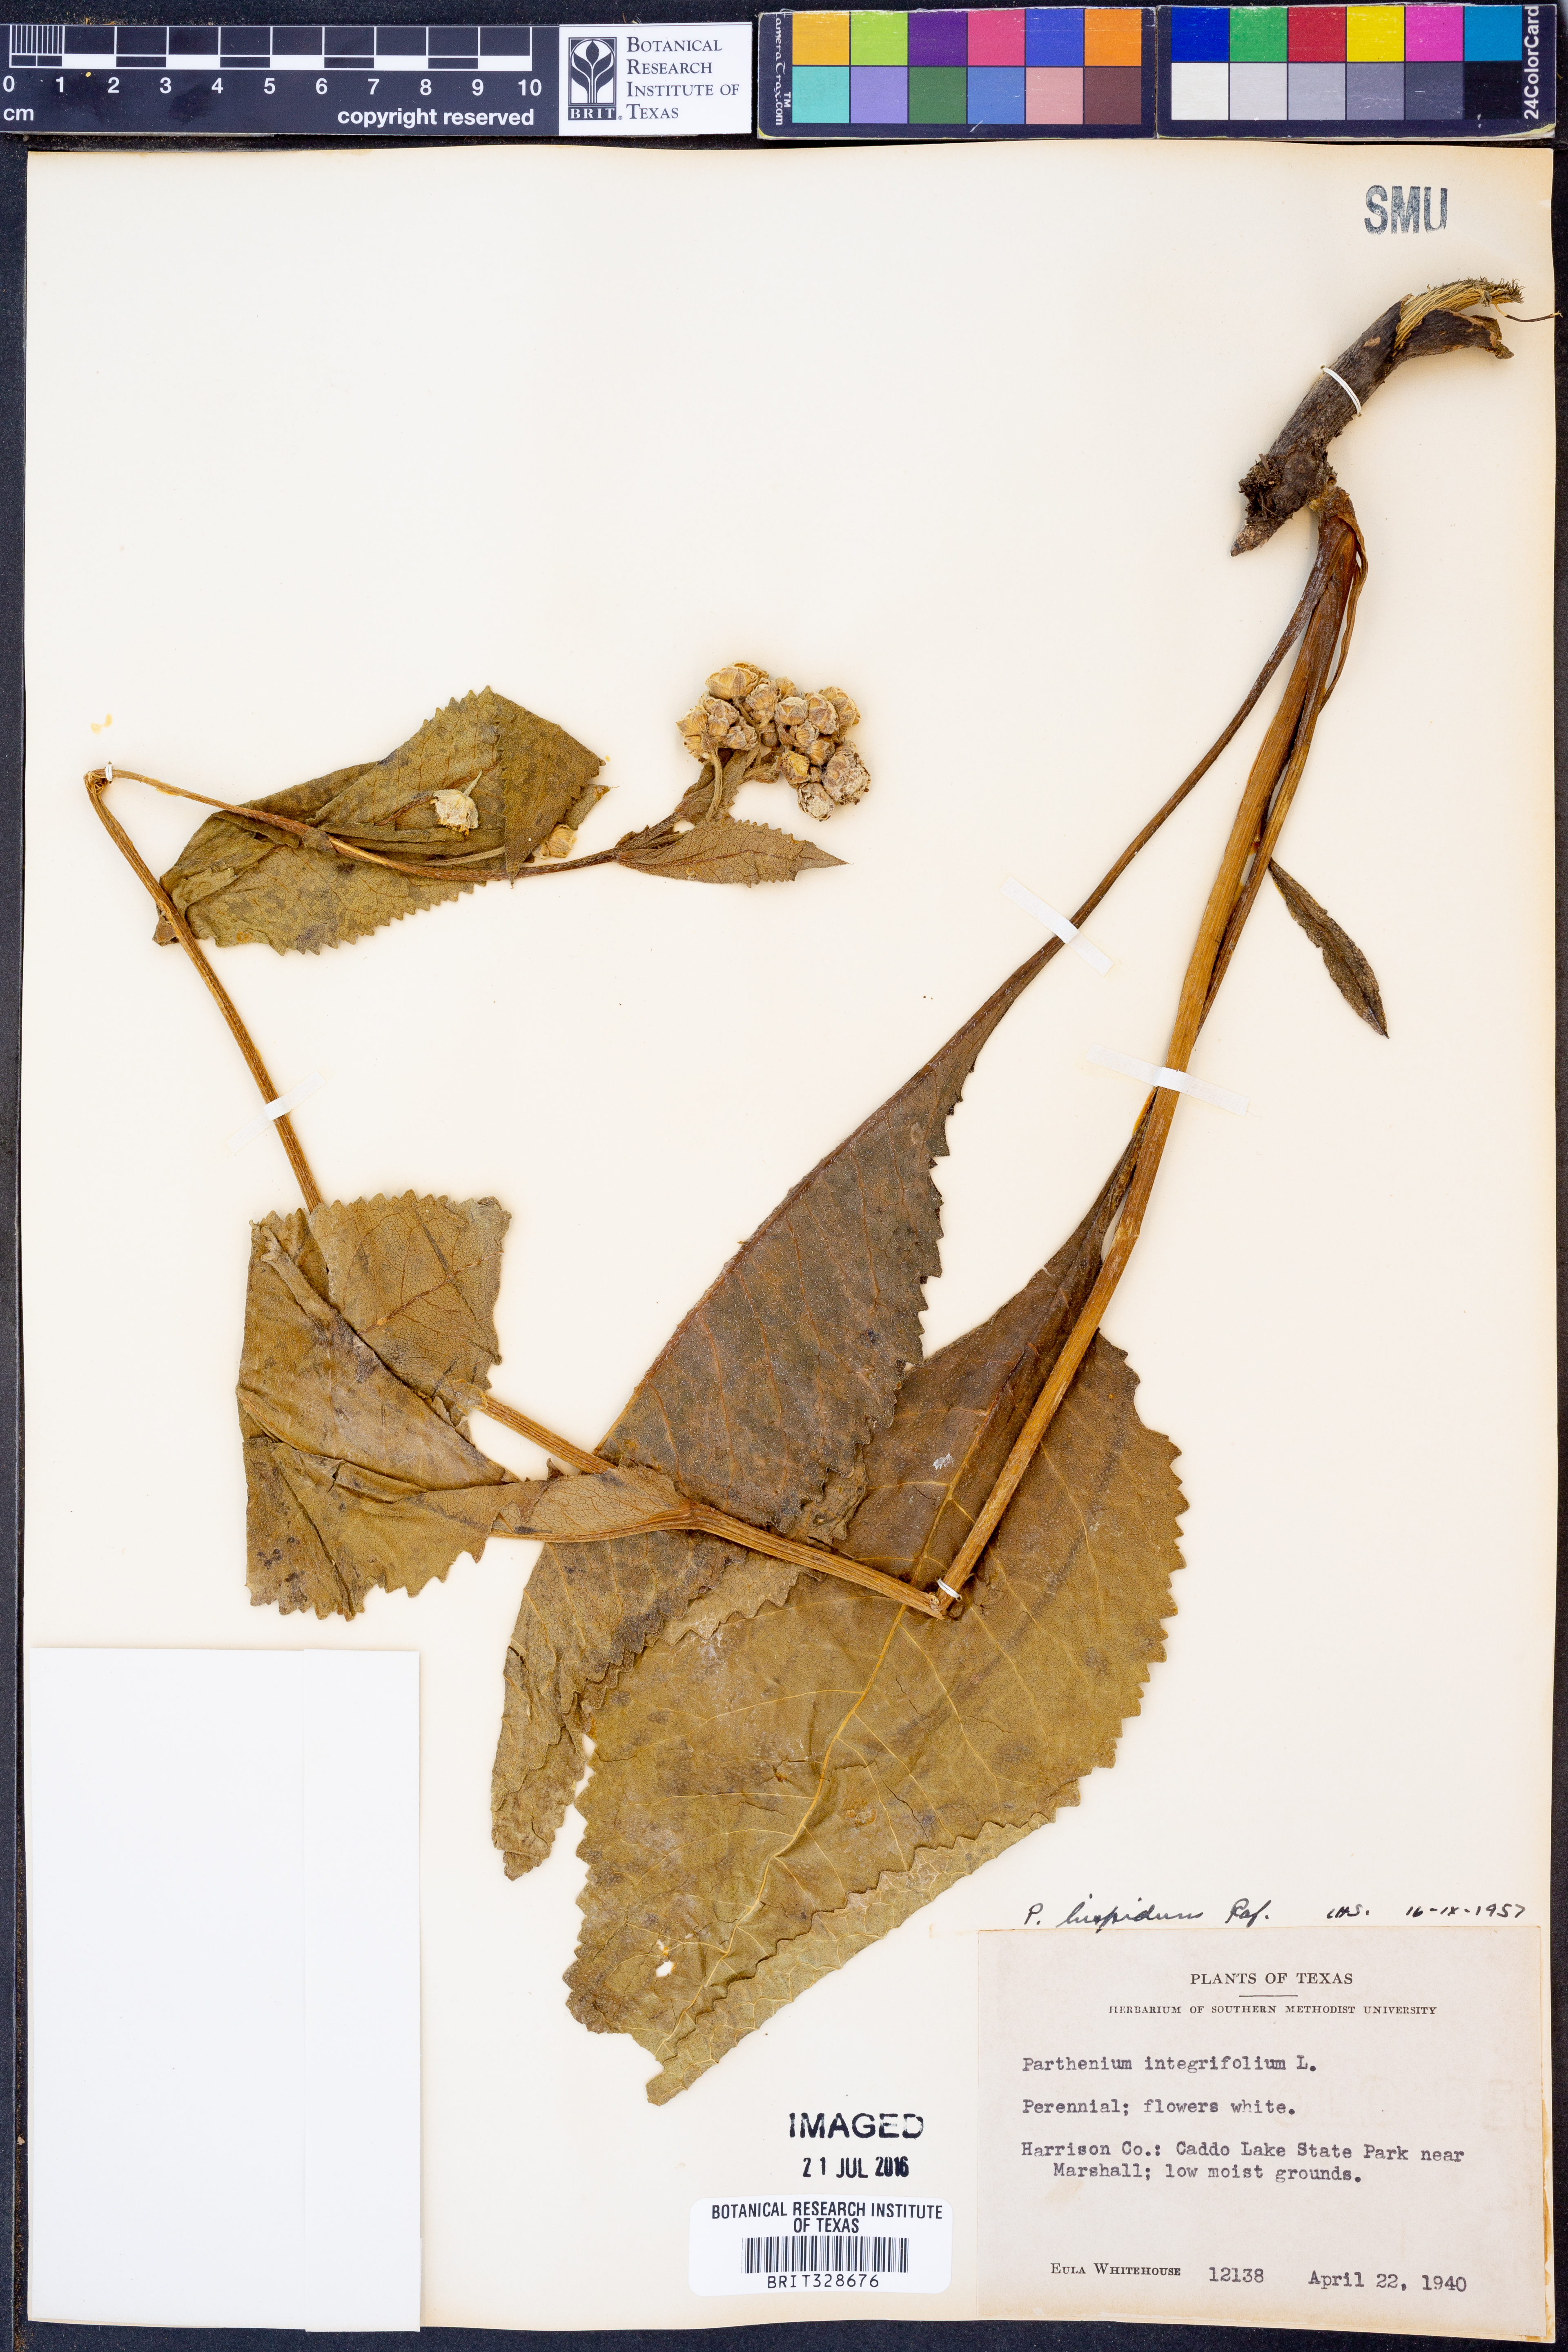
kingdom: Plantae
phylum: Tracheophyta
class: Magnoliopsida
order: Asterales
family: Asteraceae
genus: Parthenium
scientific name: Parthenium hispidum
